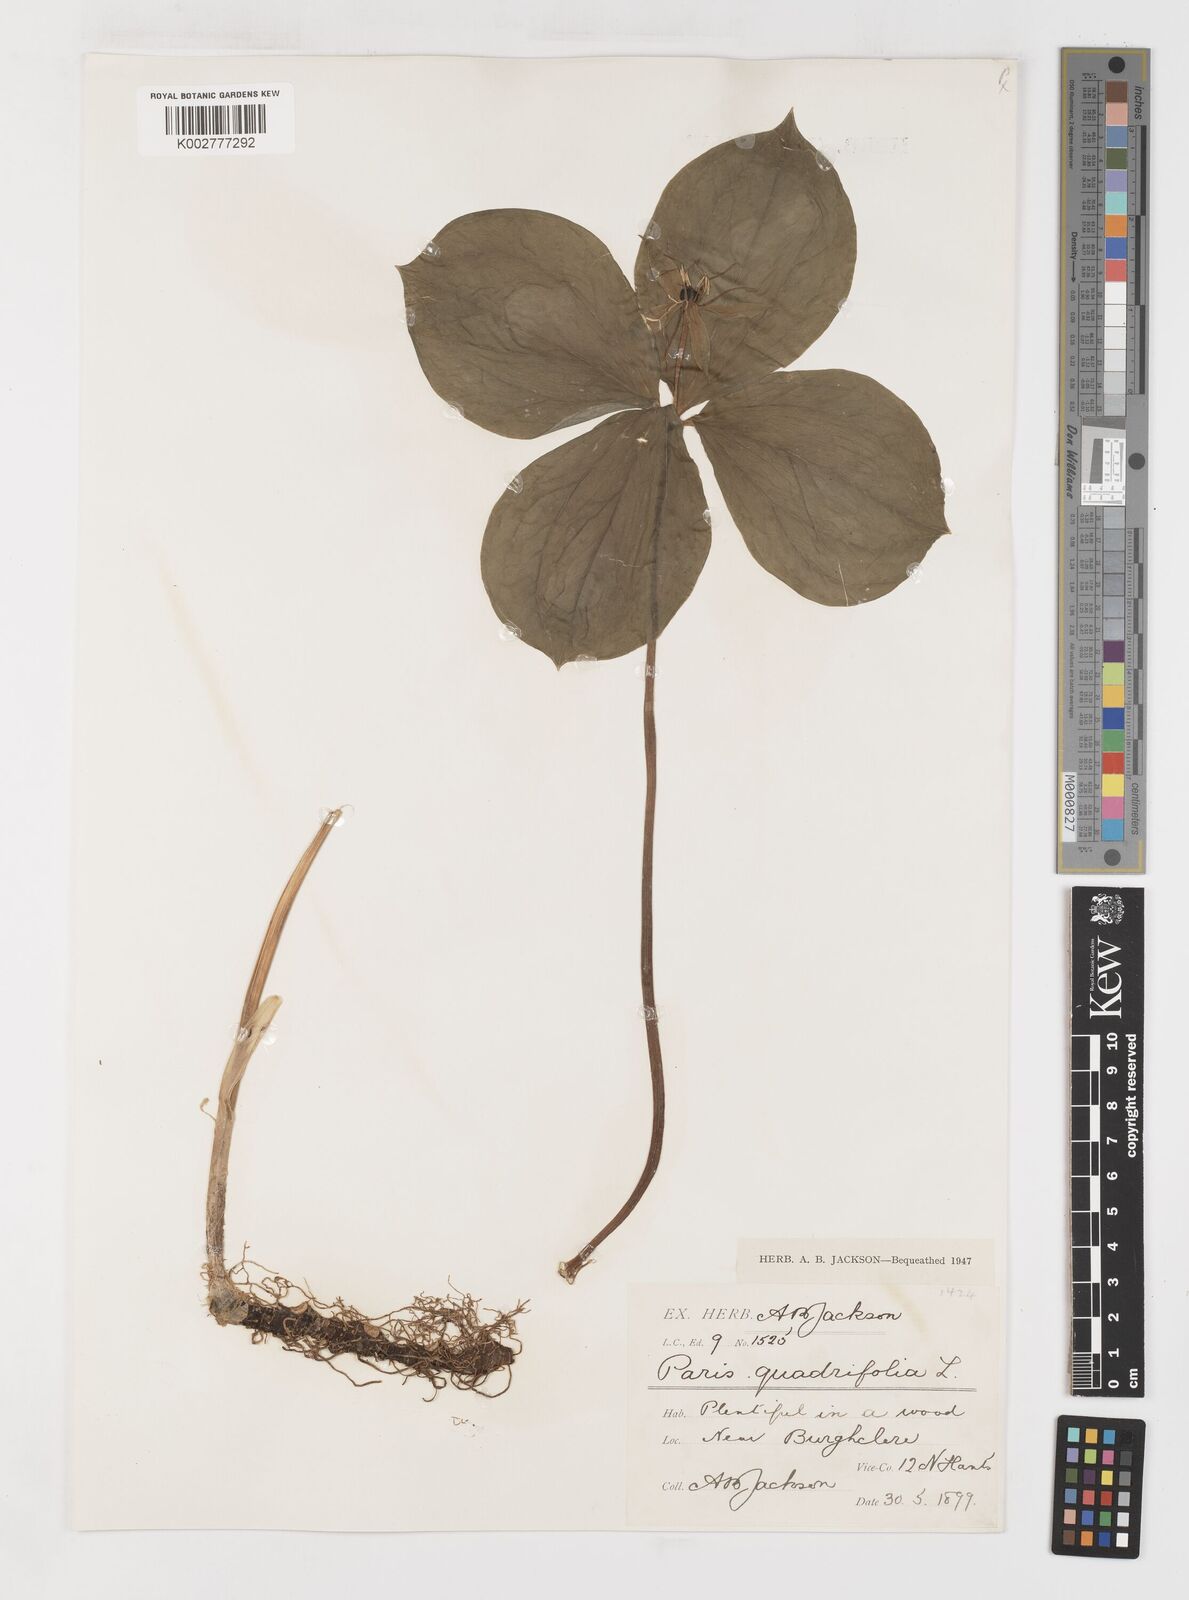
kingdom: Plantae
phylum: Tracheophyta
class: Liliopsida
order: Liliales
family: Melanthiaceae
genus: Paris
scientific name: Paris quadrifolia
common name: Herb-paris
